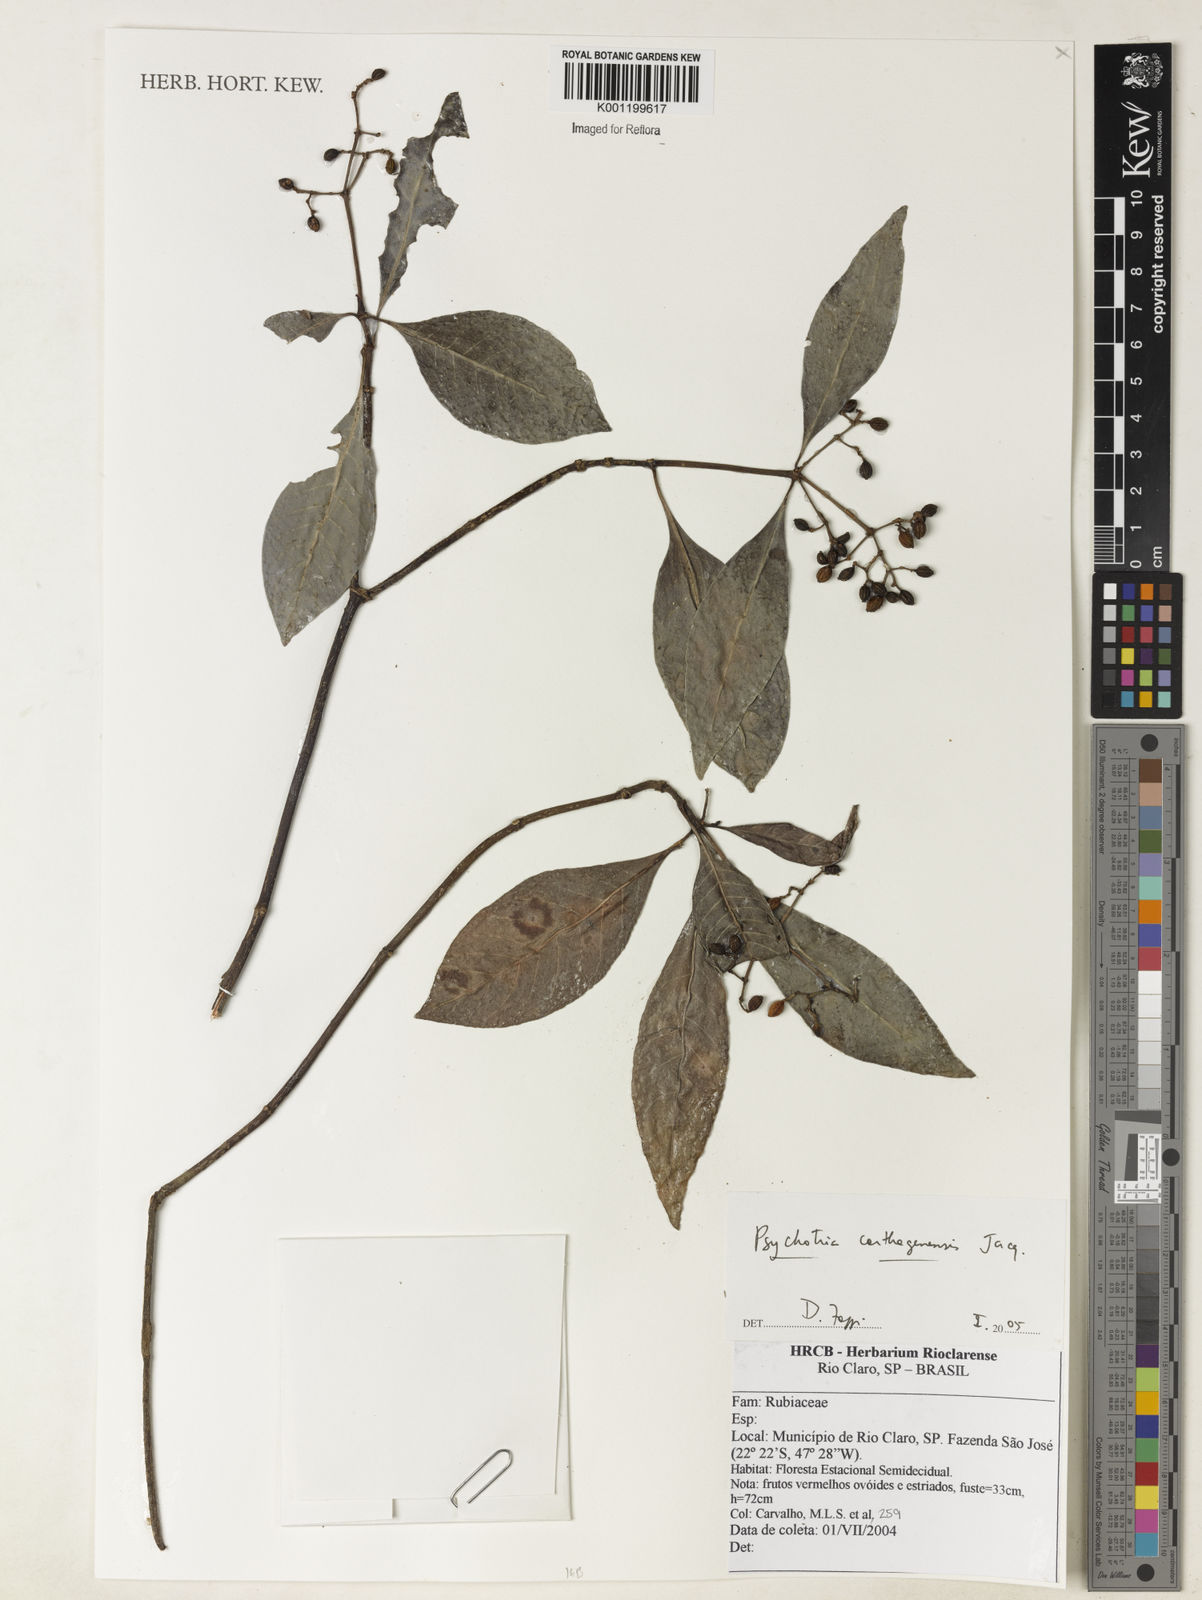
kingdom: Plantae
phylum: Tracheophyta
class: Magnoliopsida
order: Gentianales
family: Rubiaceae
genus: Psychotria
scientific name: Psychotria carthagenensis
